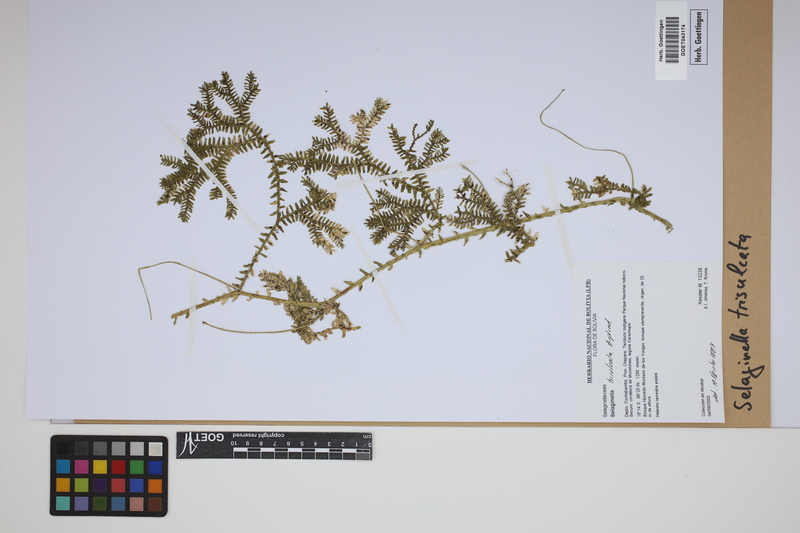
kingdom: Plantae
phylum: Tracheophyta
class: Lycopodiopsida
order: Selaginellales
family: Selaginellaceae
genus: Selaginella
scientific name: Selaginella trisulcata
